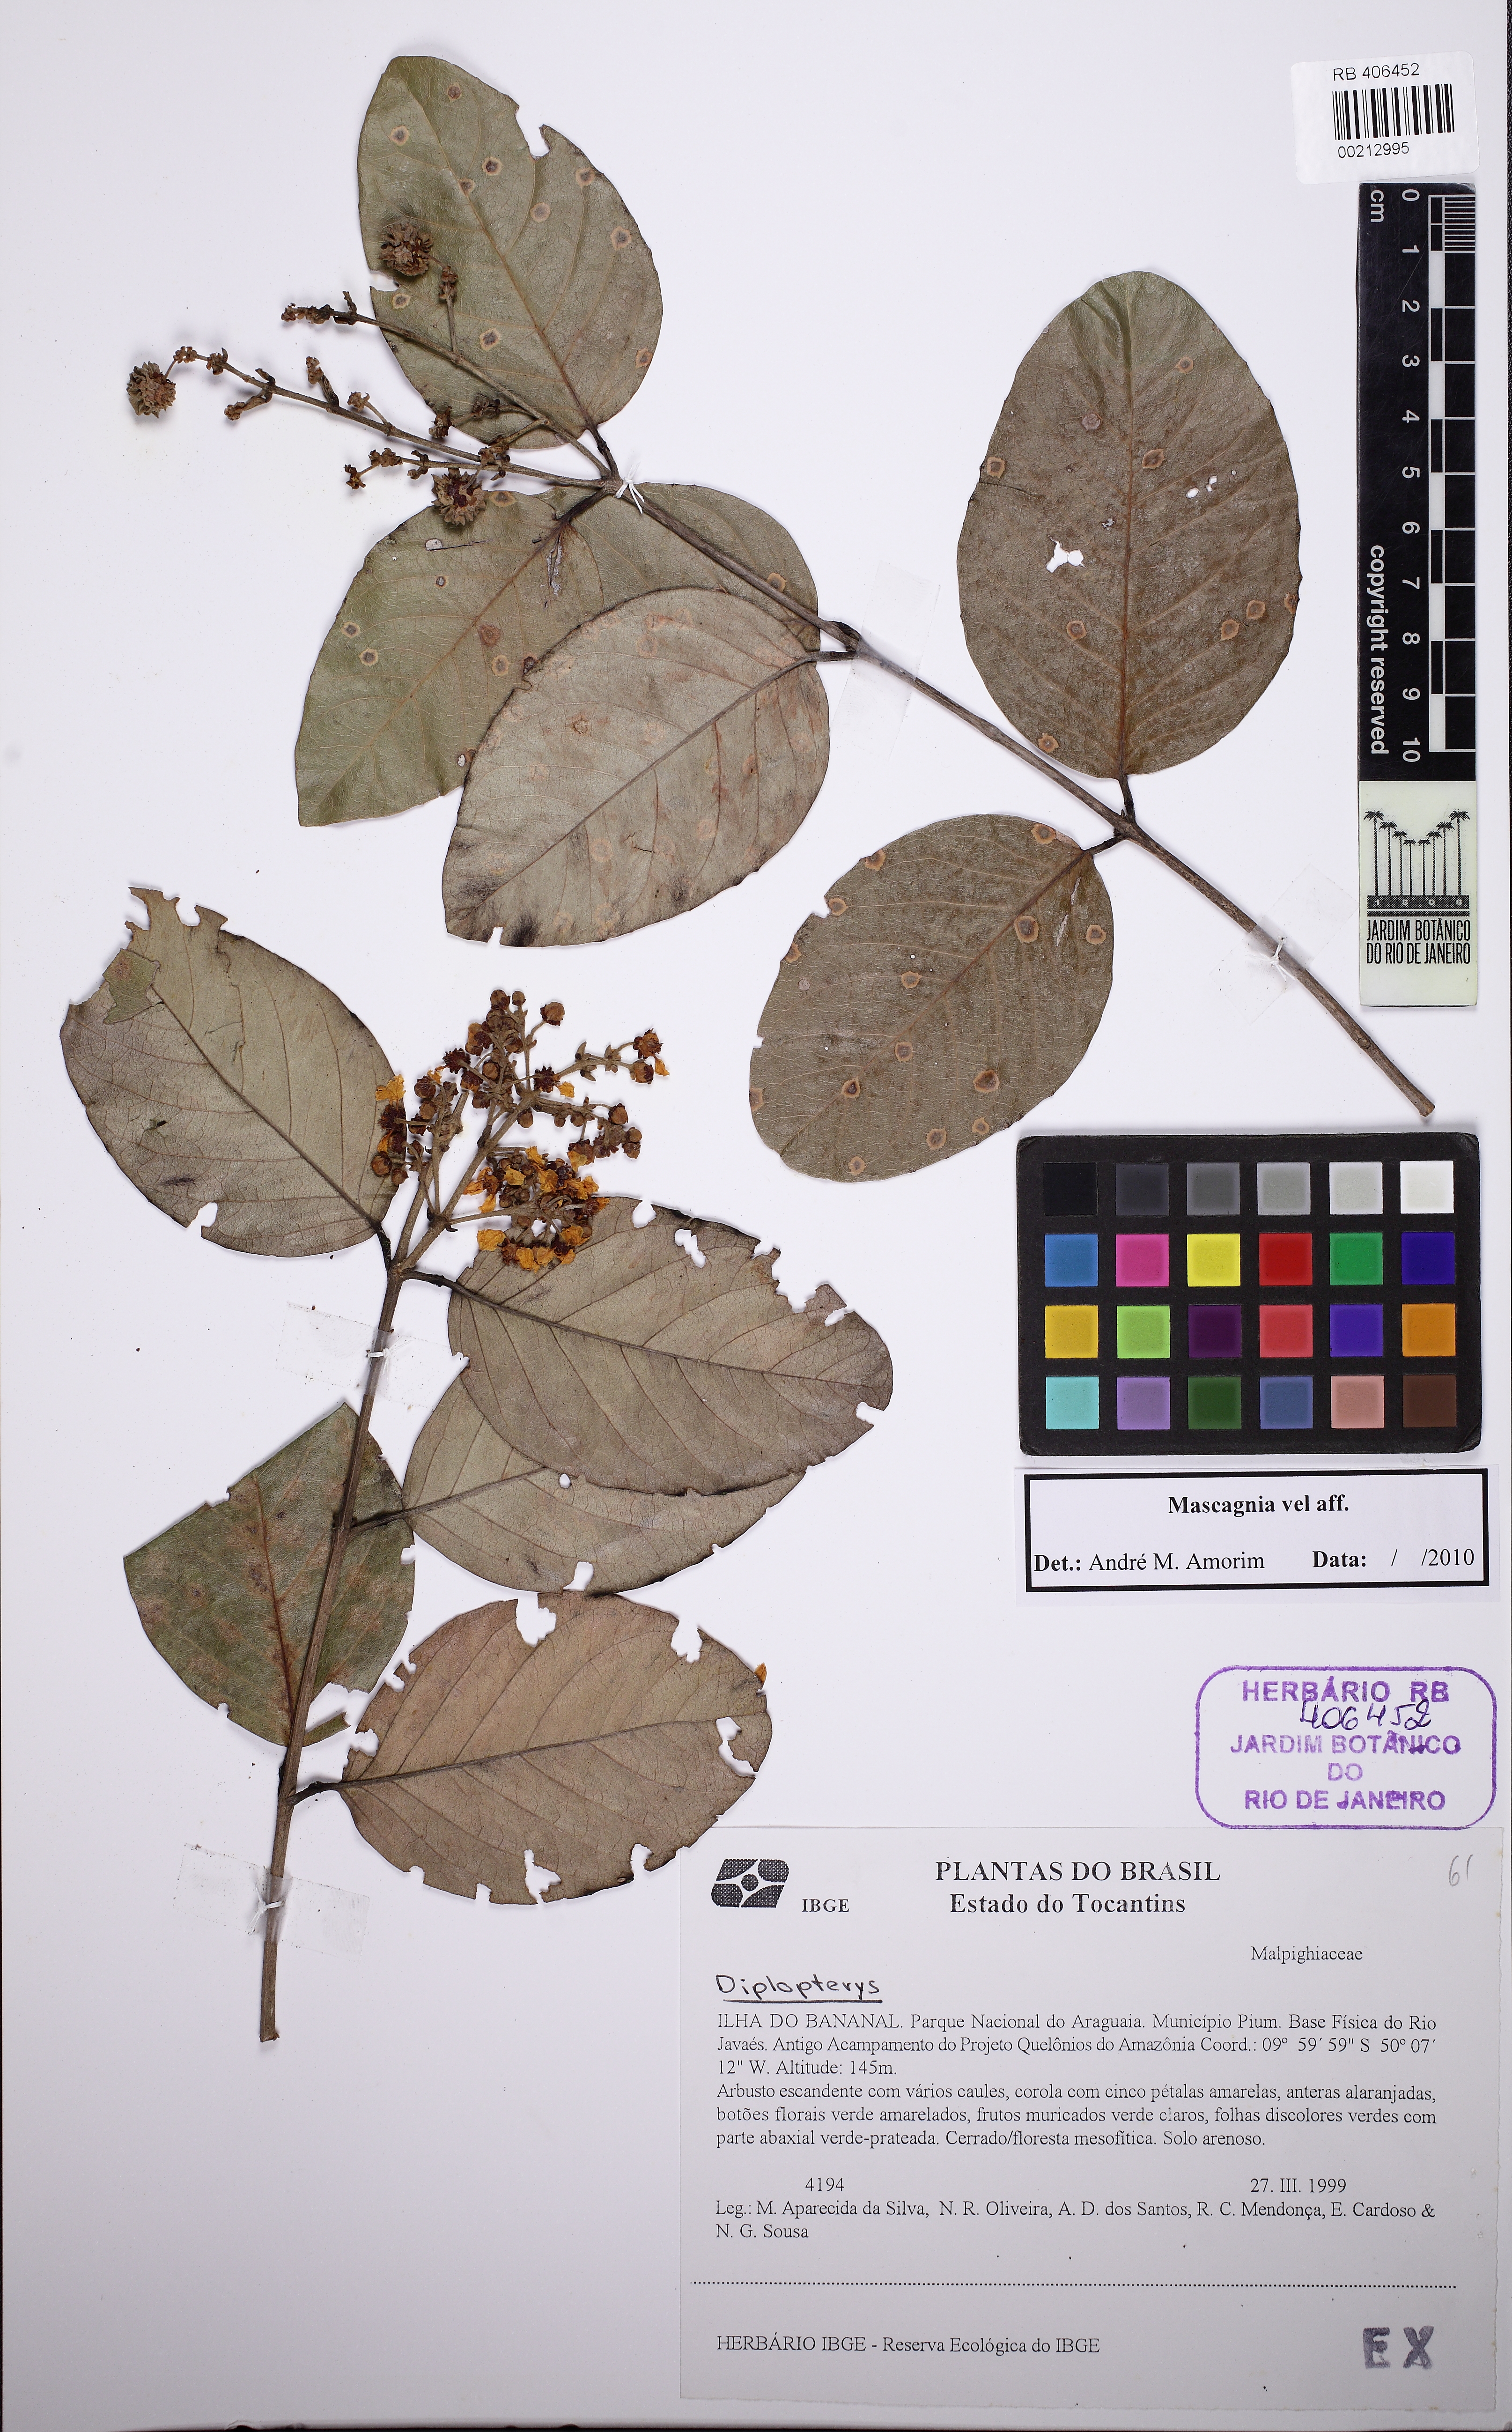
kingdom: Plantae
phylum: Tracheophyta
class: Magnoliopsida
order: Malpighiales
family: Malpighiaceae
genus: Heteropterys
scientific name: Heteropterys ovata
